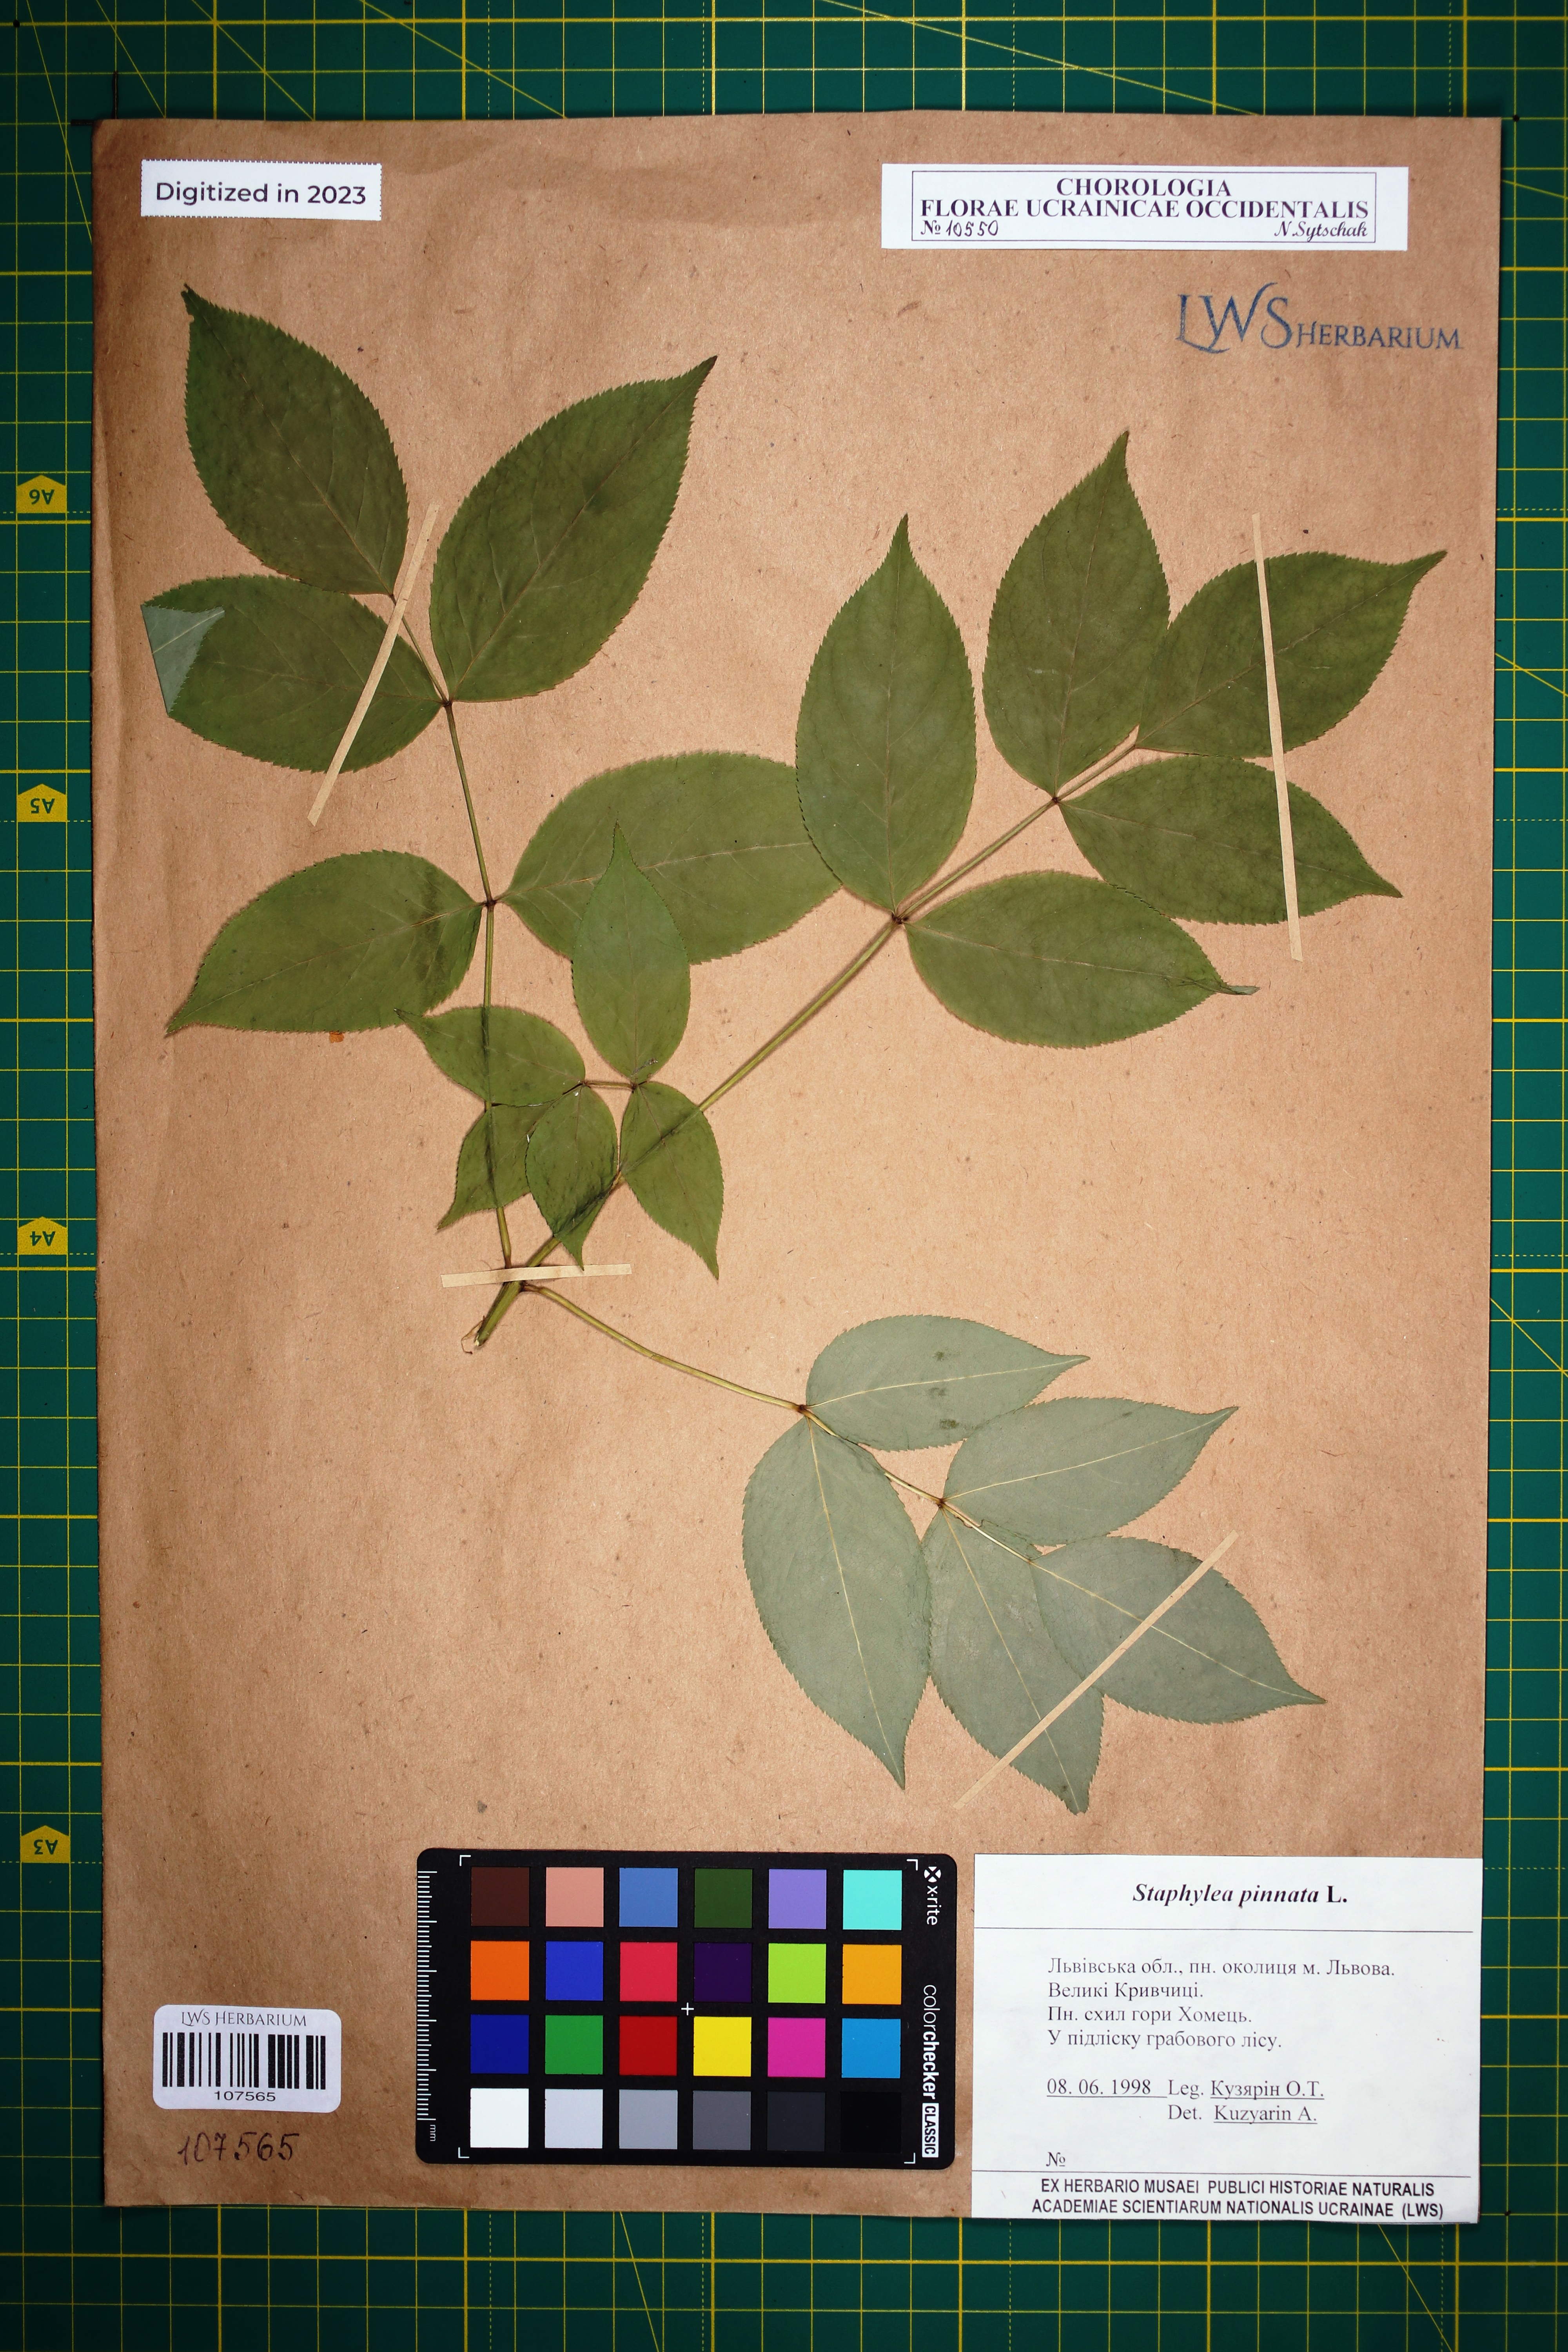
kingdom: Plantae
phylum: Tracheophyta
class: Magnoliopsida
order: Crossosomatales
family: Staphyleaceae
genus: Staphylea
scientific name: Staphylea pinnata
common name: Bladdernut
